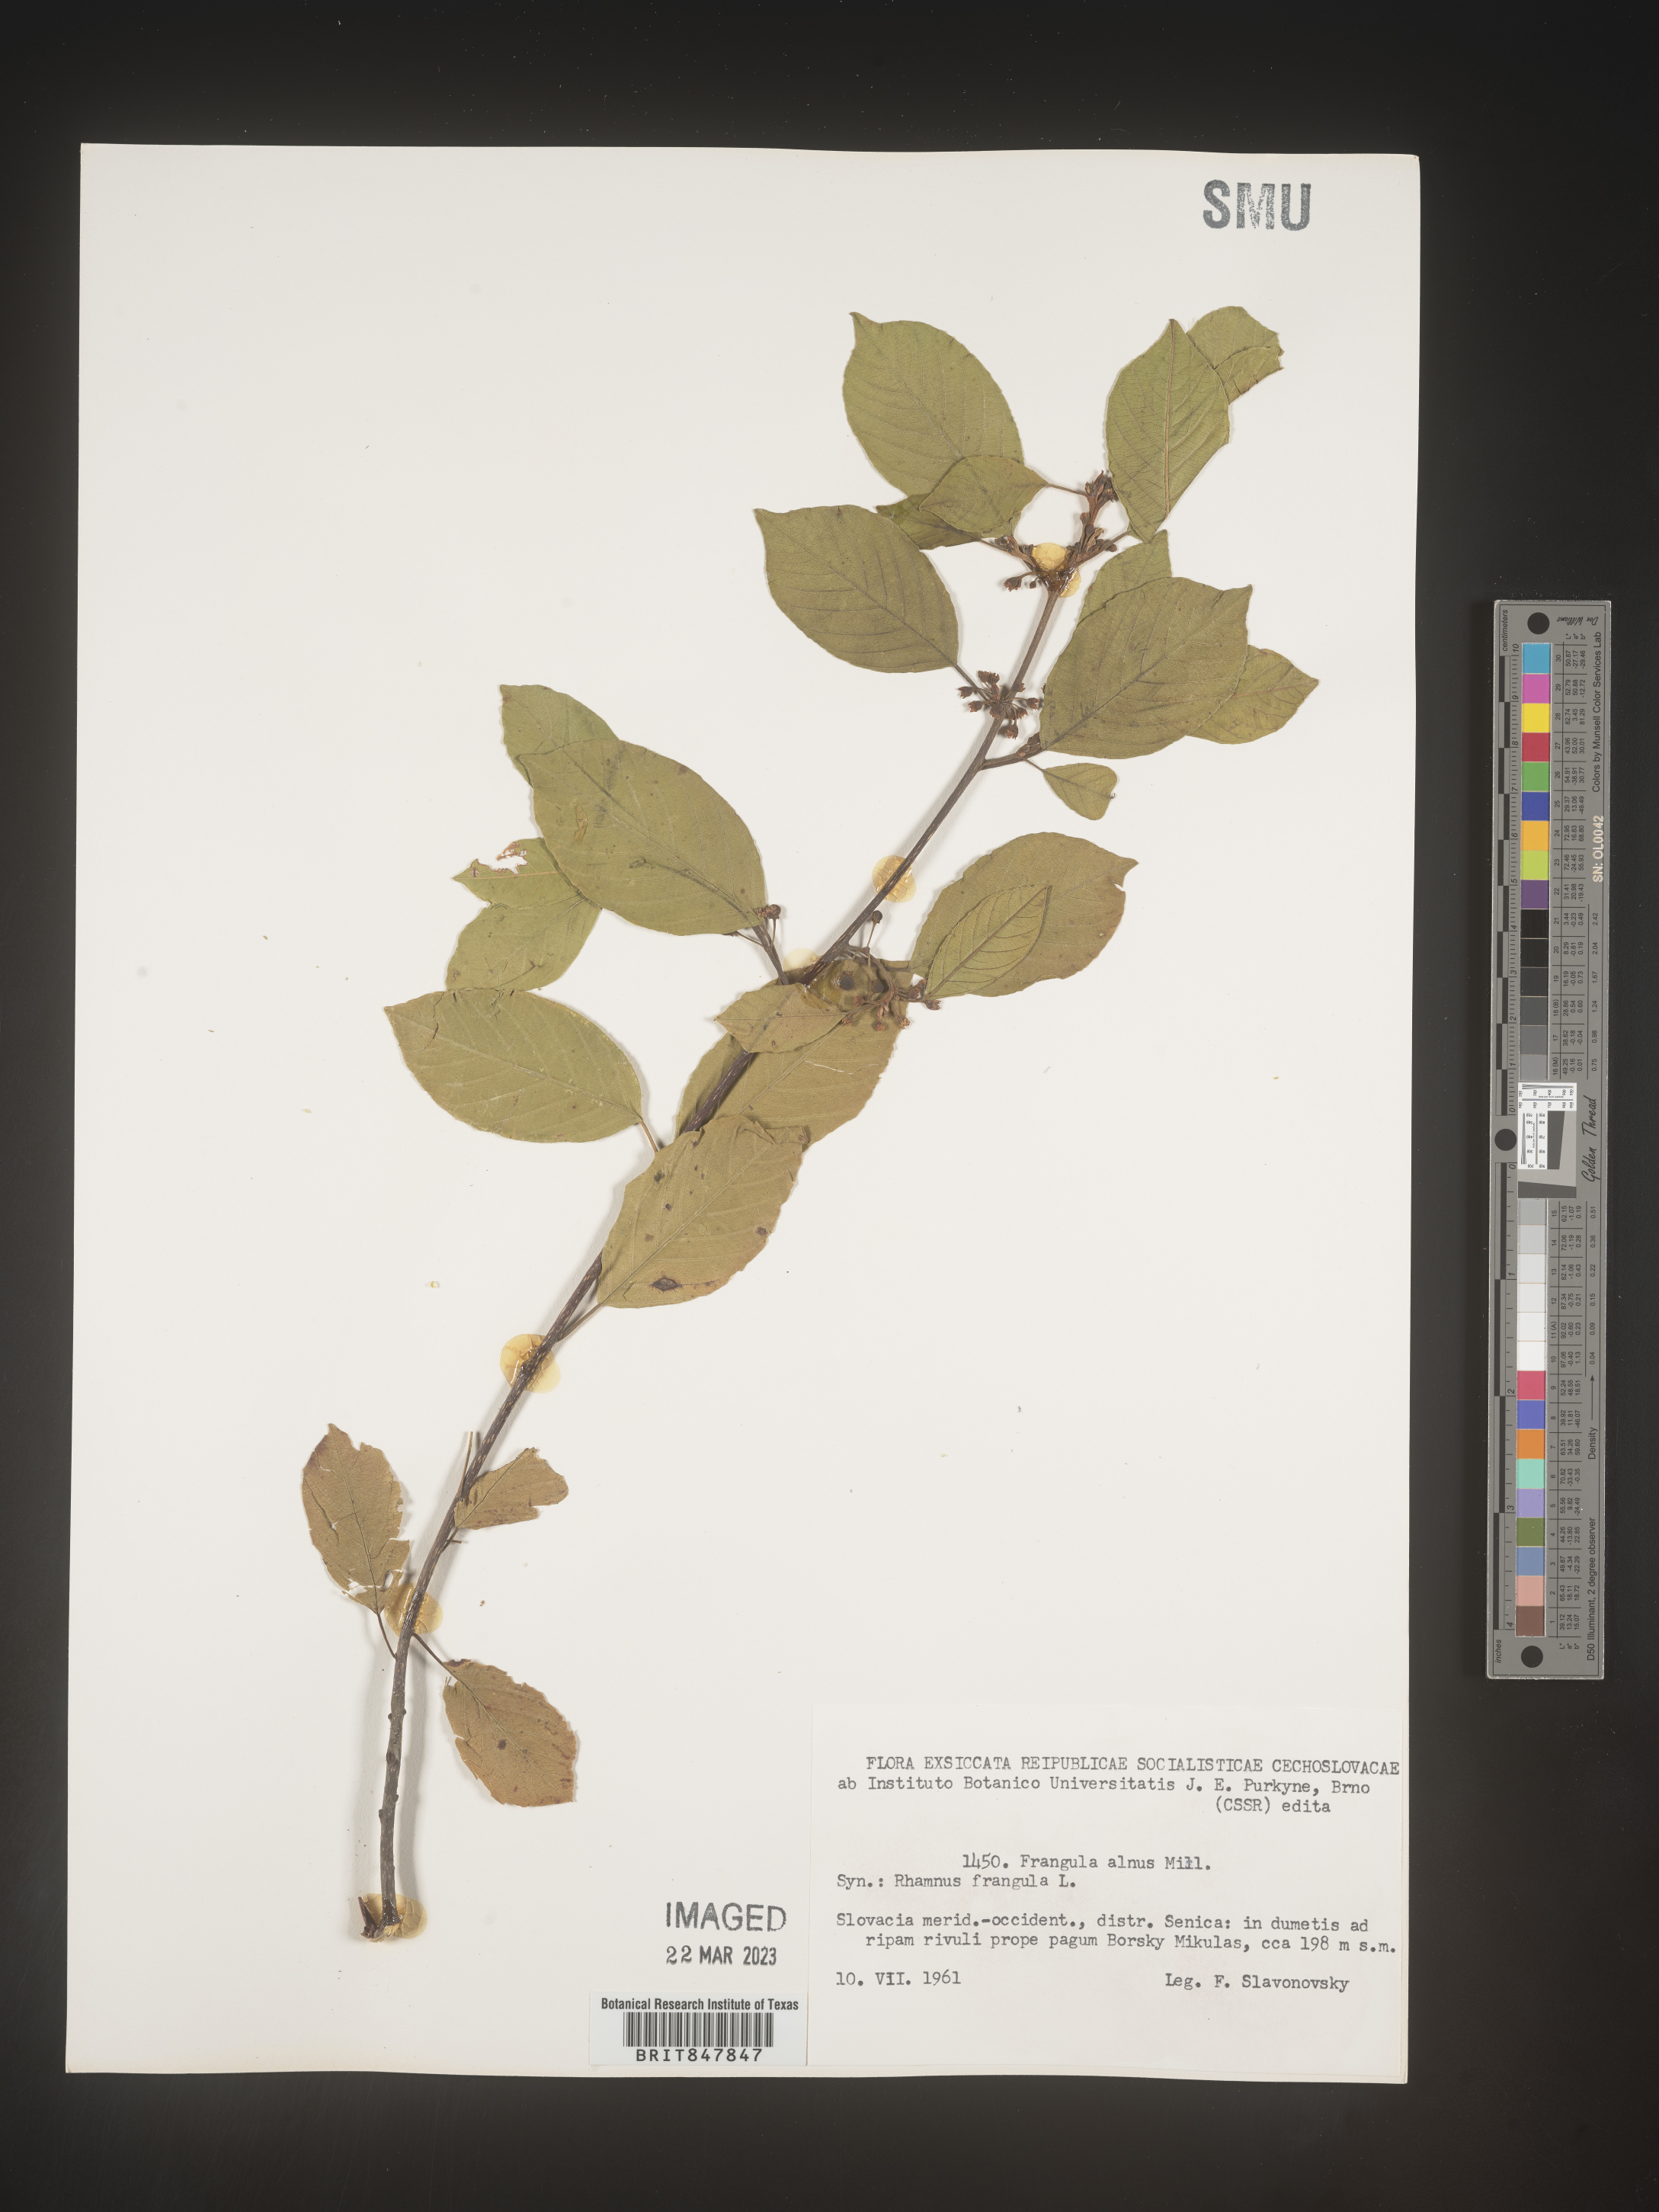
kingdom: Plantae
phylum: Tracheophyta
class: Magnoliopsida
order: Rosales
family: Rhamnaceae
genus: Rhamnus
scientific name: Rhamnus
